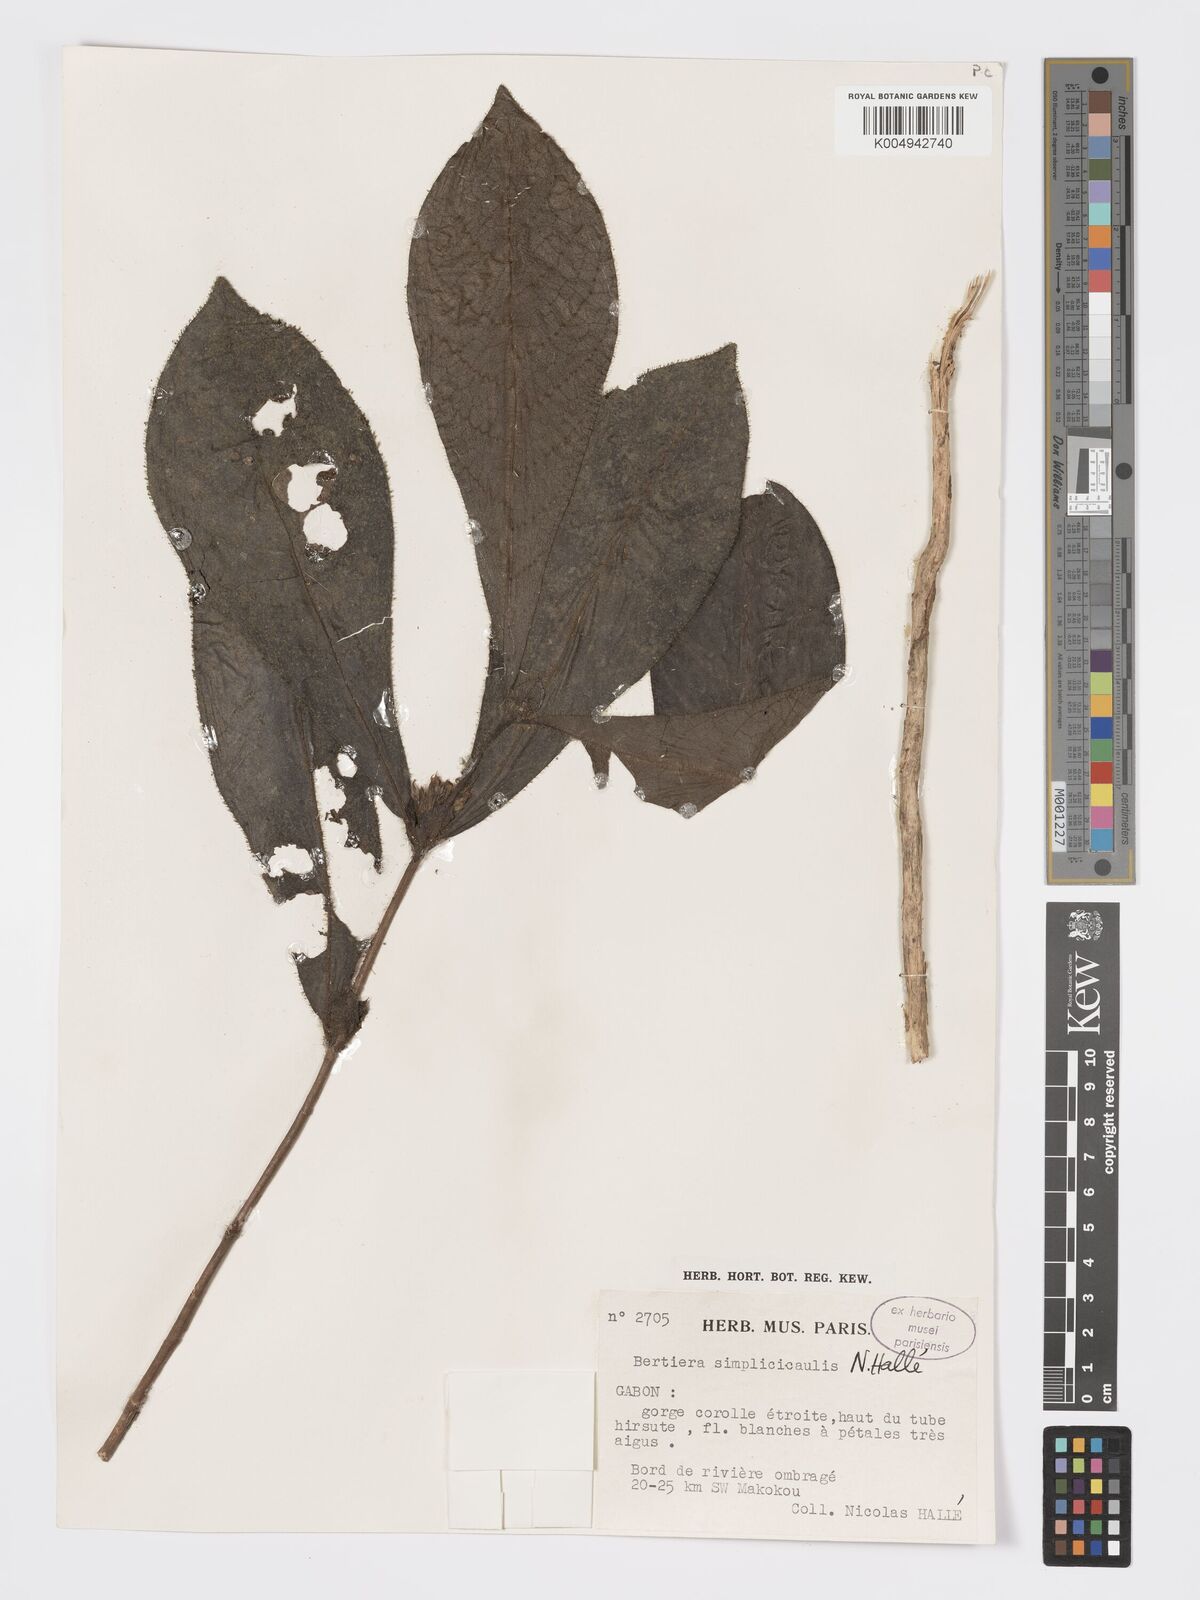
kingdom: Plantae
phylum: Tracheophyta
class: Magnoliopsida
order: Gentianales
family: Rubiaceae
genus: Bertiera
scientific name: Bertiera bicarpellata
